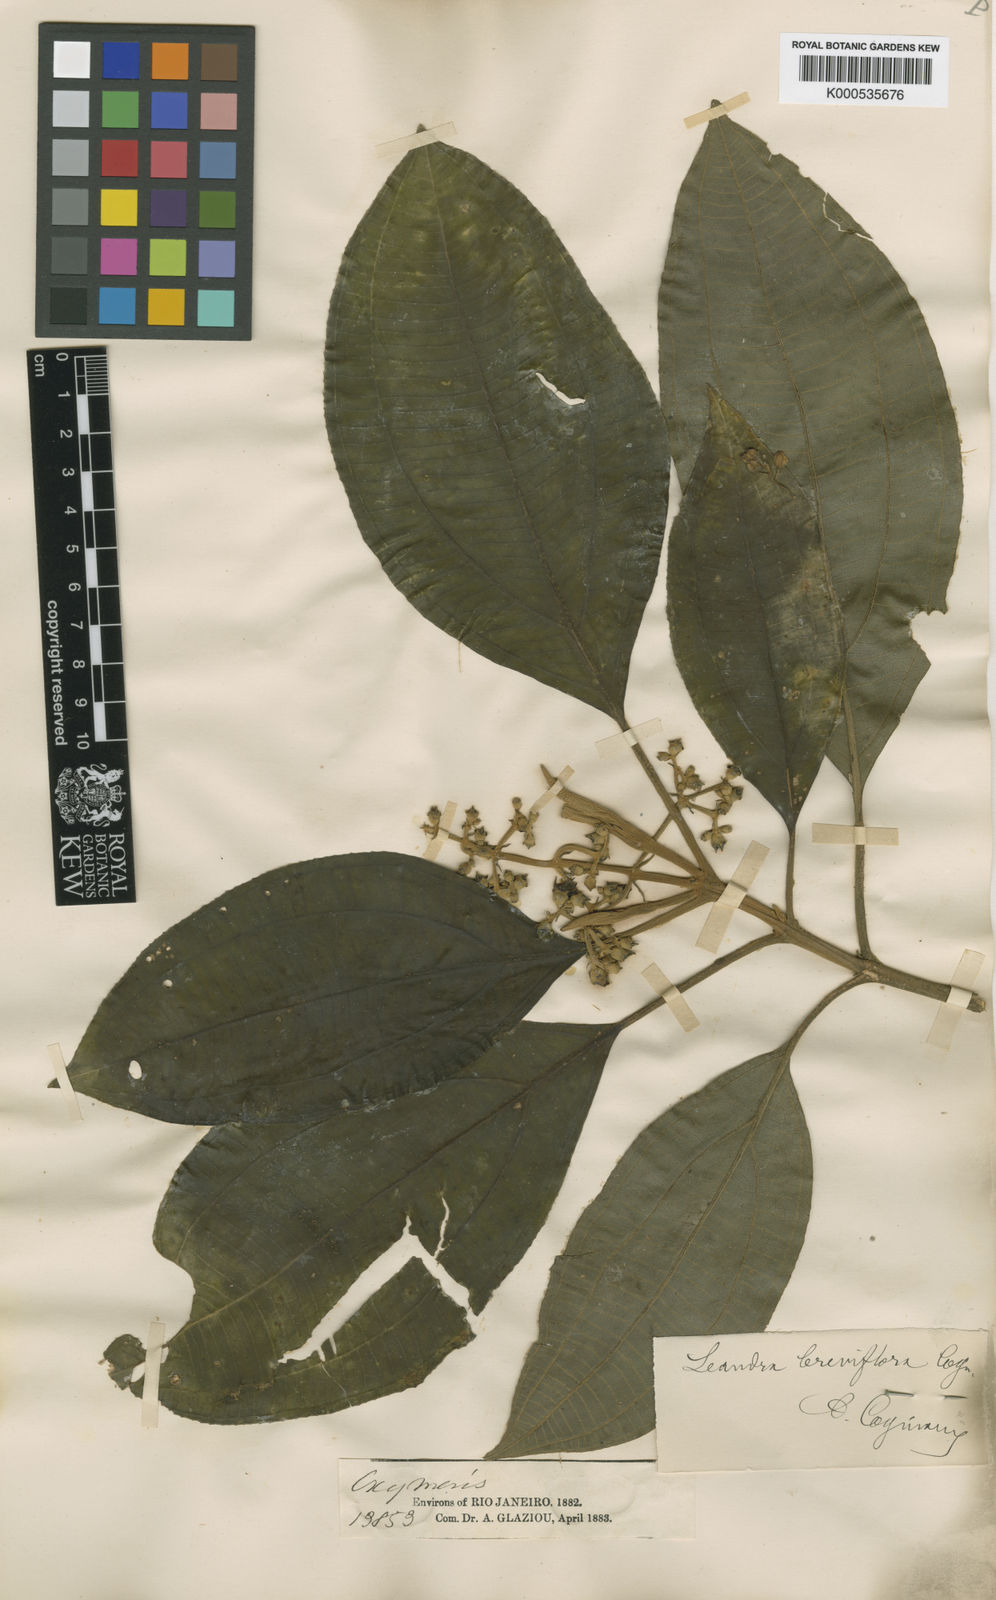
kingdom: Plantae
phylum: Tracheophyta
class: Magnoliopsida
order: Myrtales
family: Melastomataceae
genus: Miconia
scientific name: Miconia breviflora
